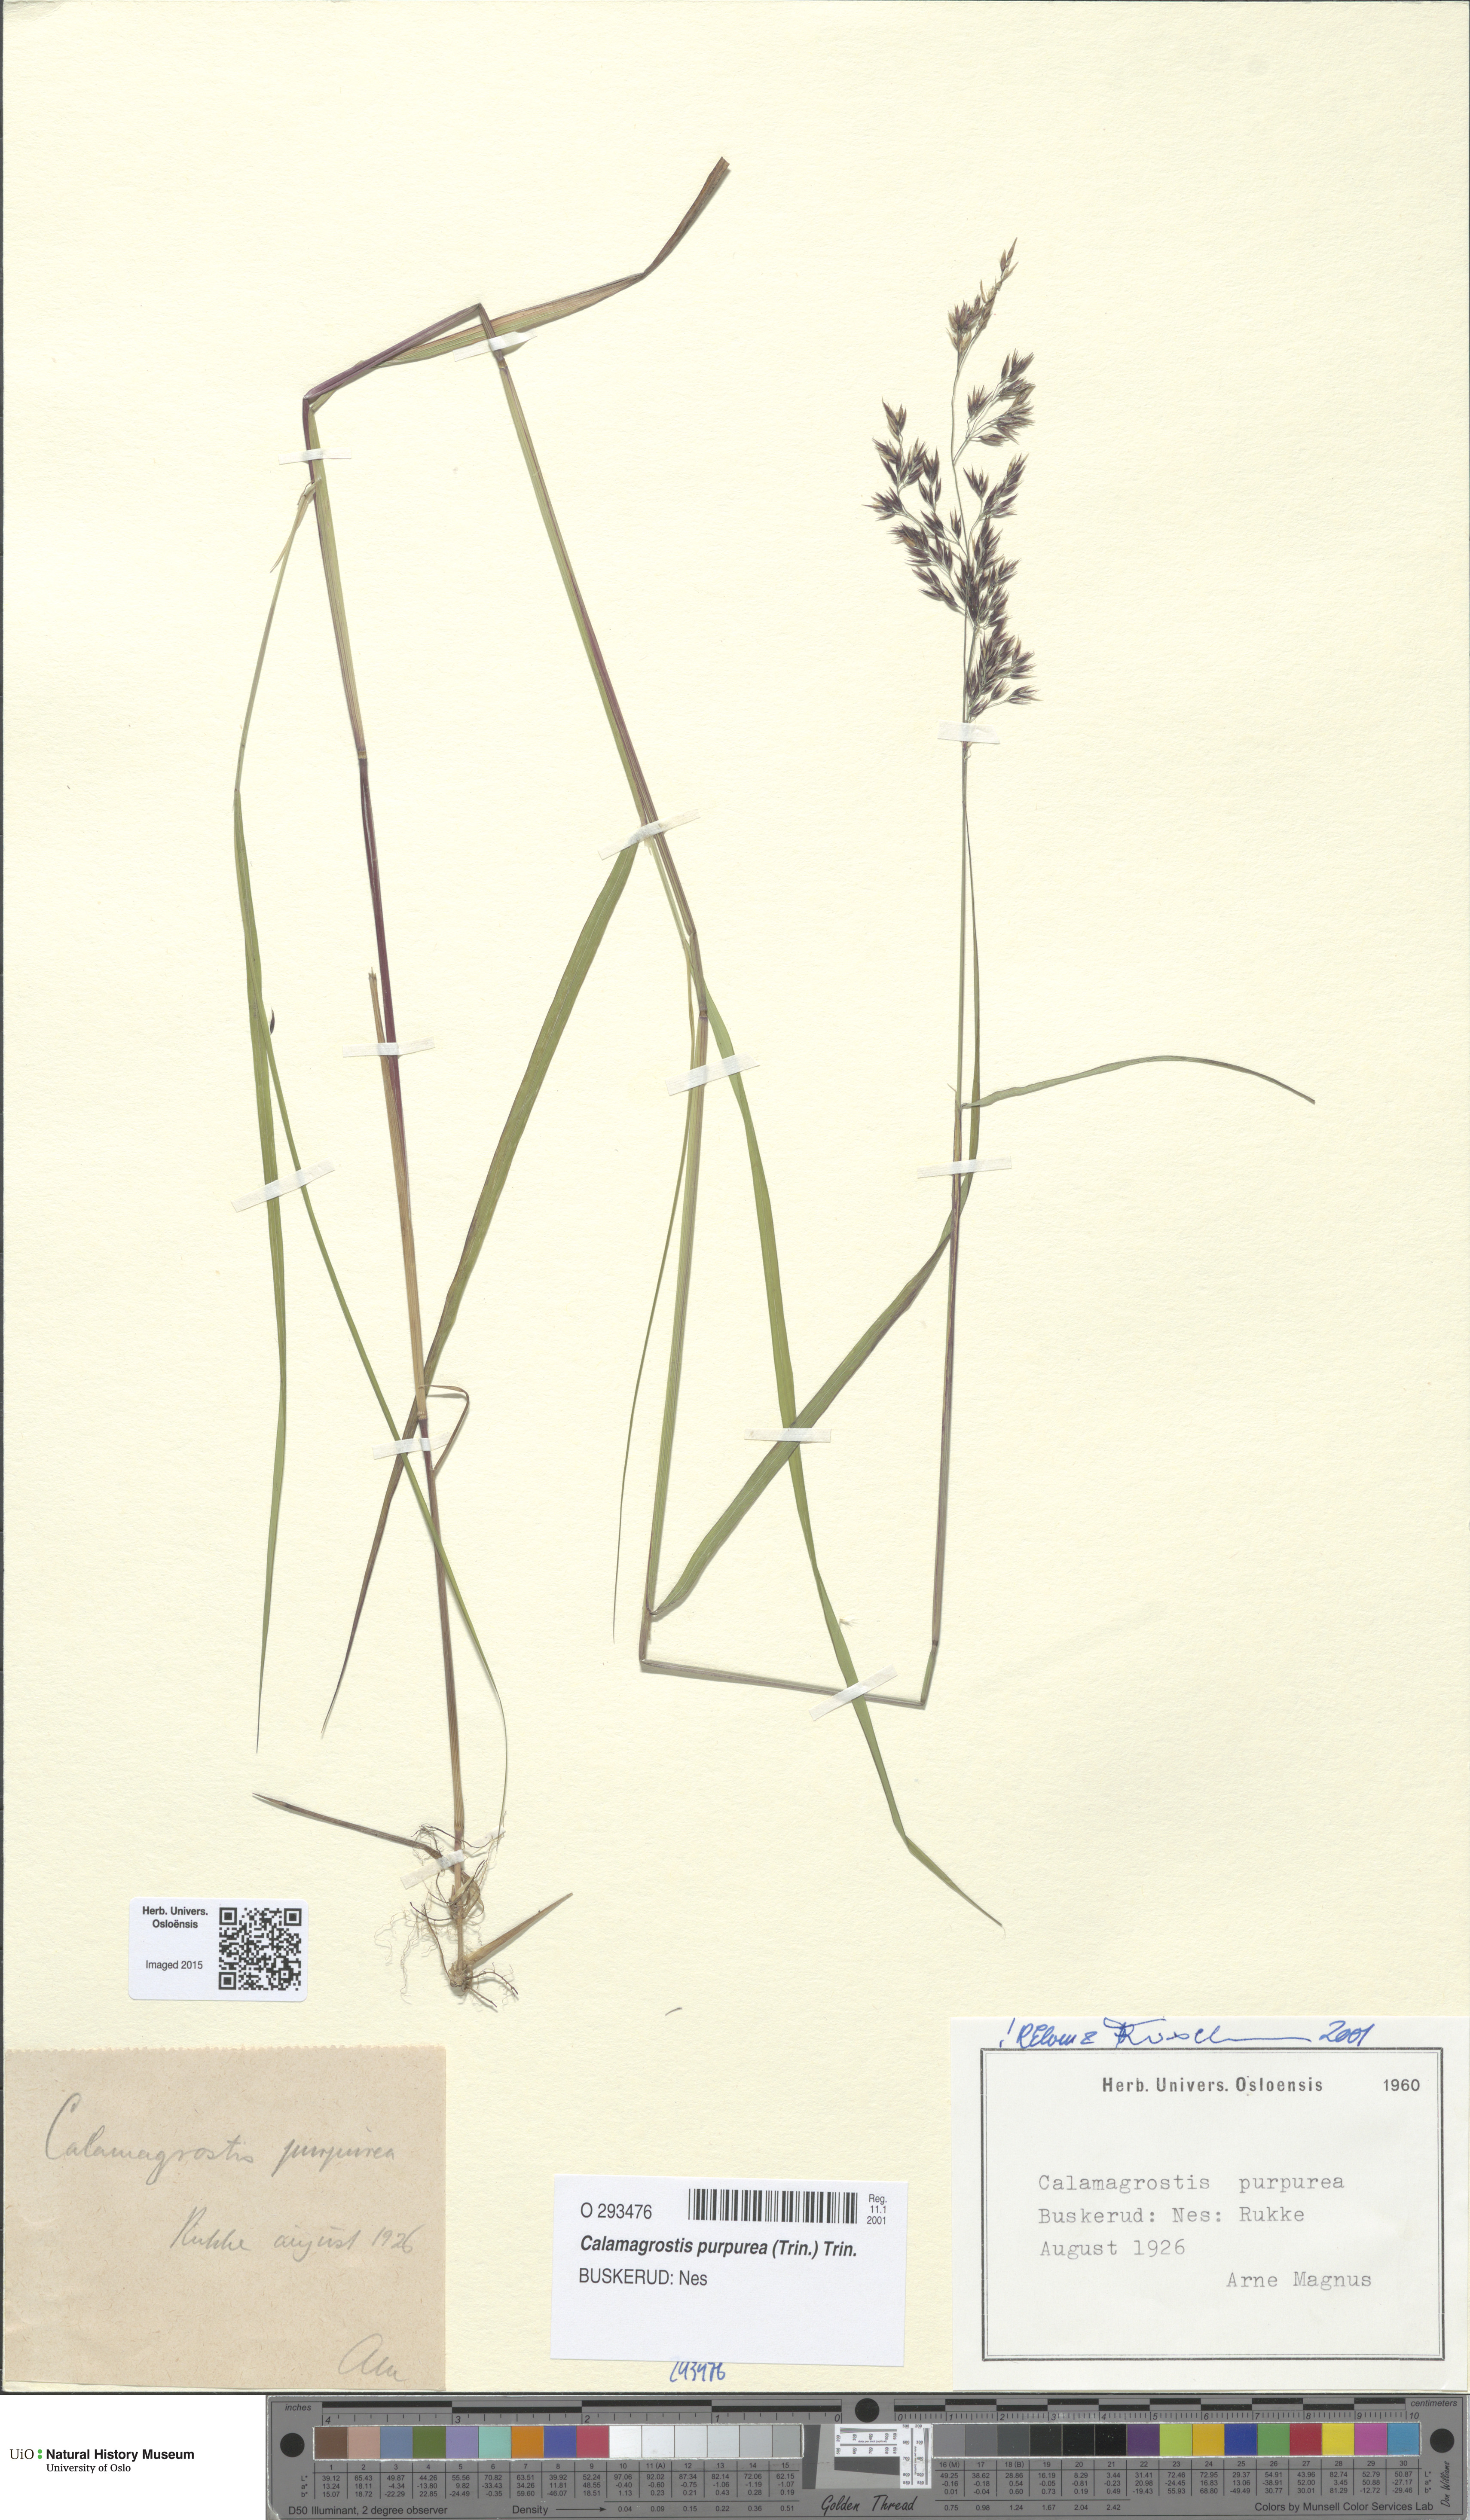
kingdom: Plantae
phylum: Tracheophyta
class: Liliopsida
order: Poales
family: Poaceae
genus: Calamagrostis
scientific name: Calamagrostis purpurea
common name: Scandinavian small-reed
